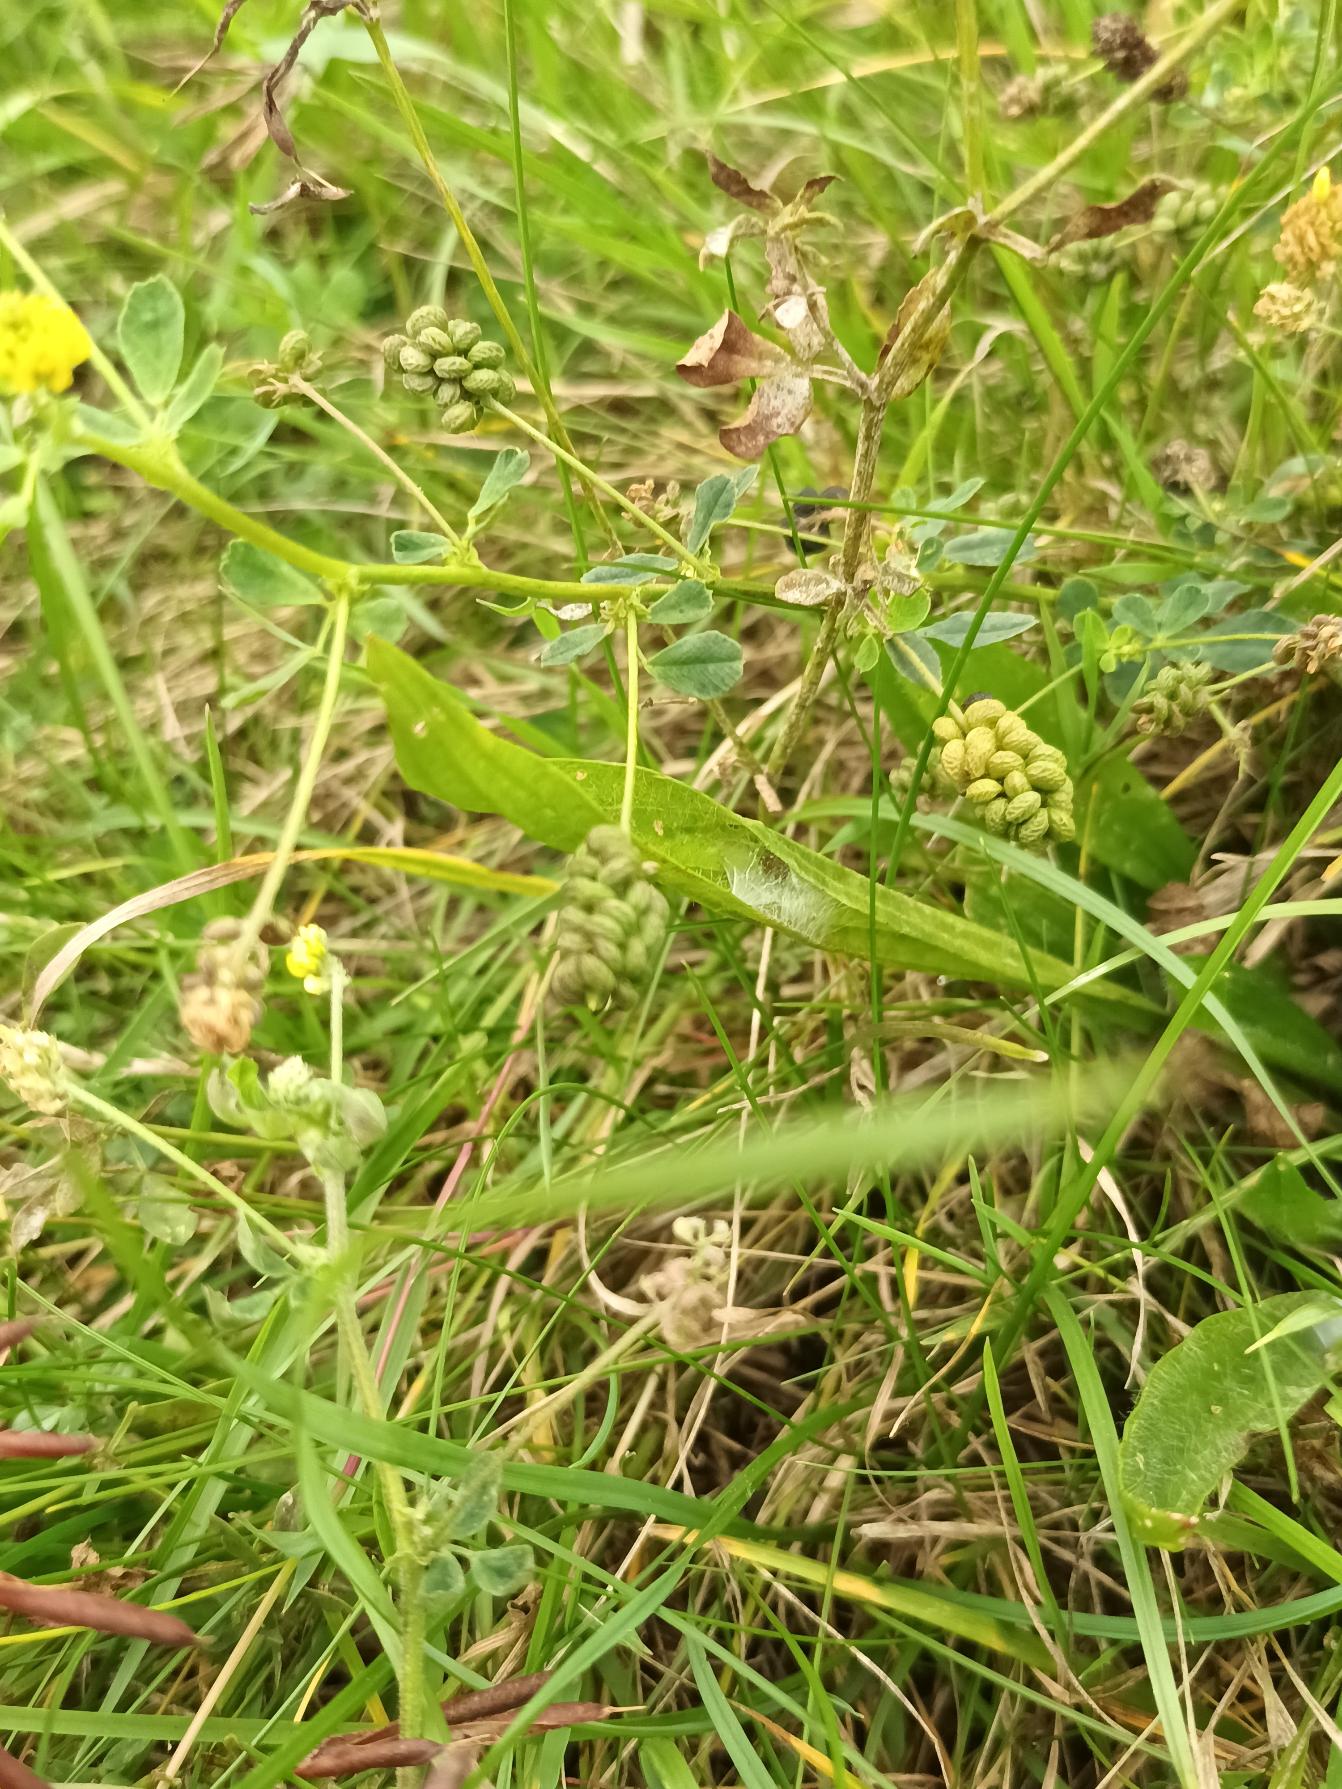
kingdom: Plantae
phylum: Tracheophyta
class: Magnoliopsida
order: Fabales
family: Fabaceae
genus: Medicago
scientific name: Medicago lupulina
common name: Humle-sneglebælg
